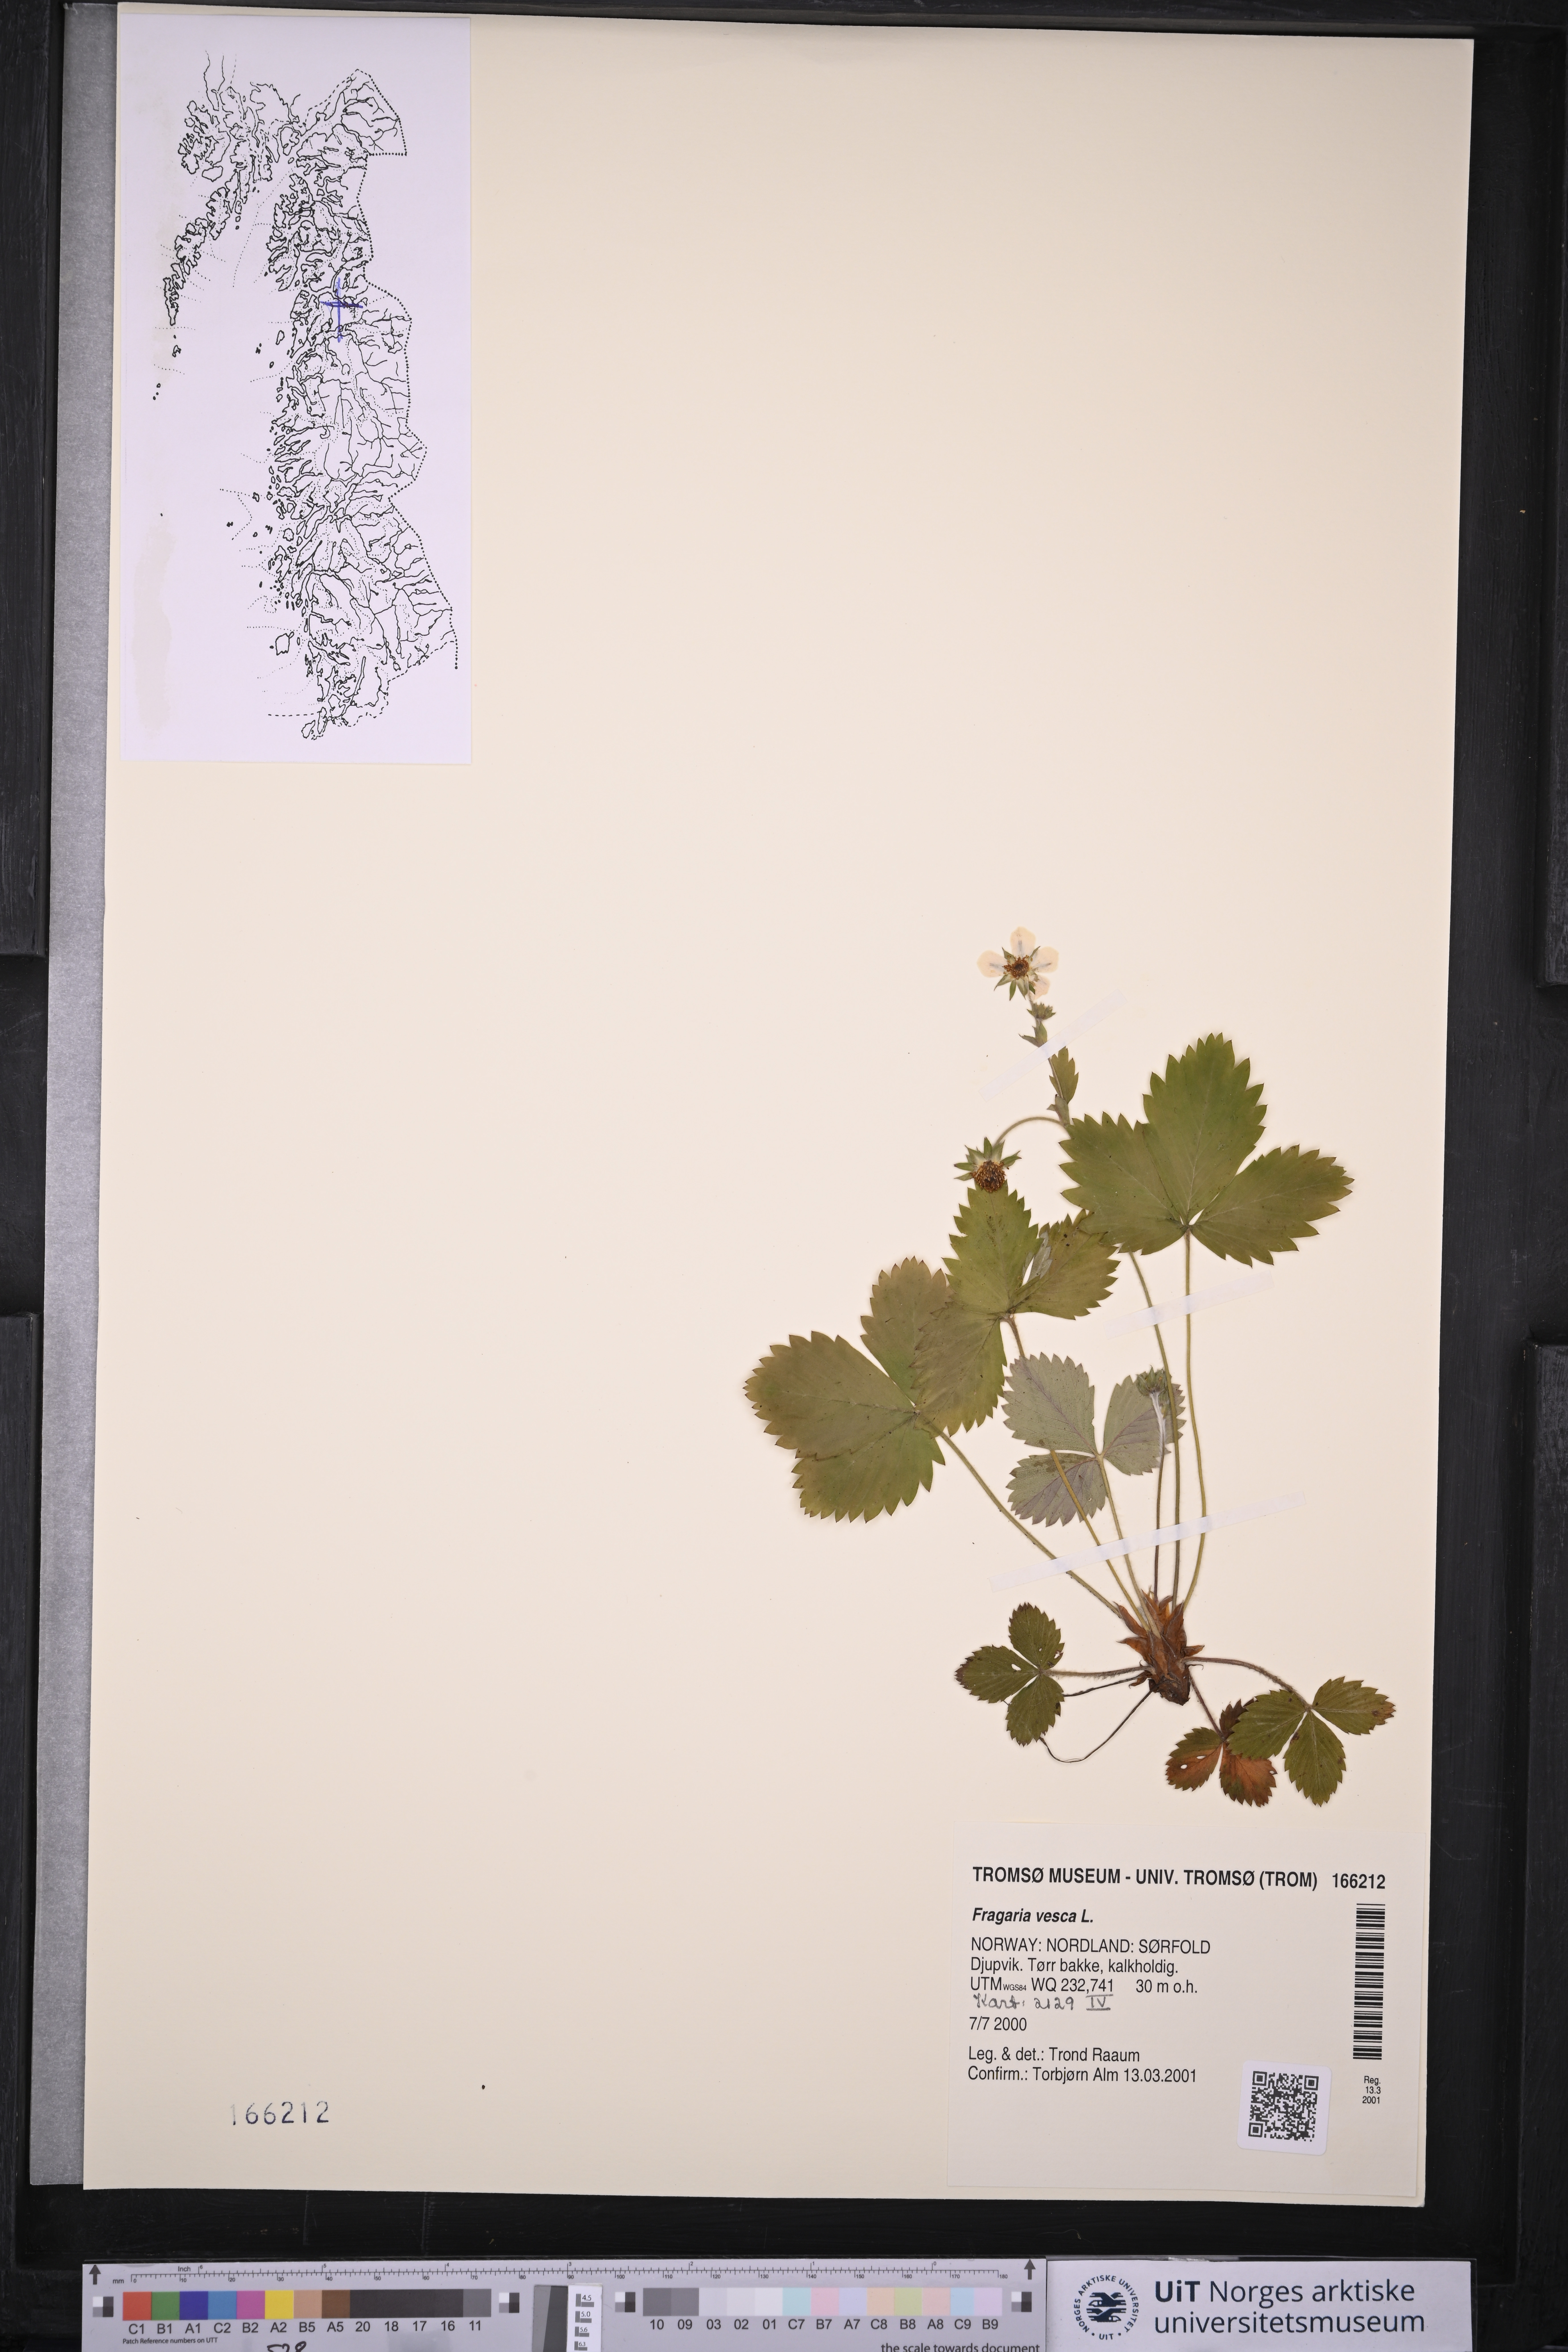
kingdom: Plantae
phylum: Tracheophyta
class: Magnoliopsida
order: Rosales
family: Rosaceae
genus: Fragaria
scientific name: Fragaria vesca
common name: Wild strawberry
